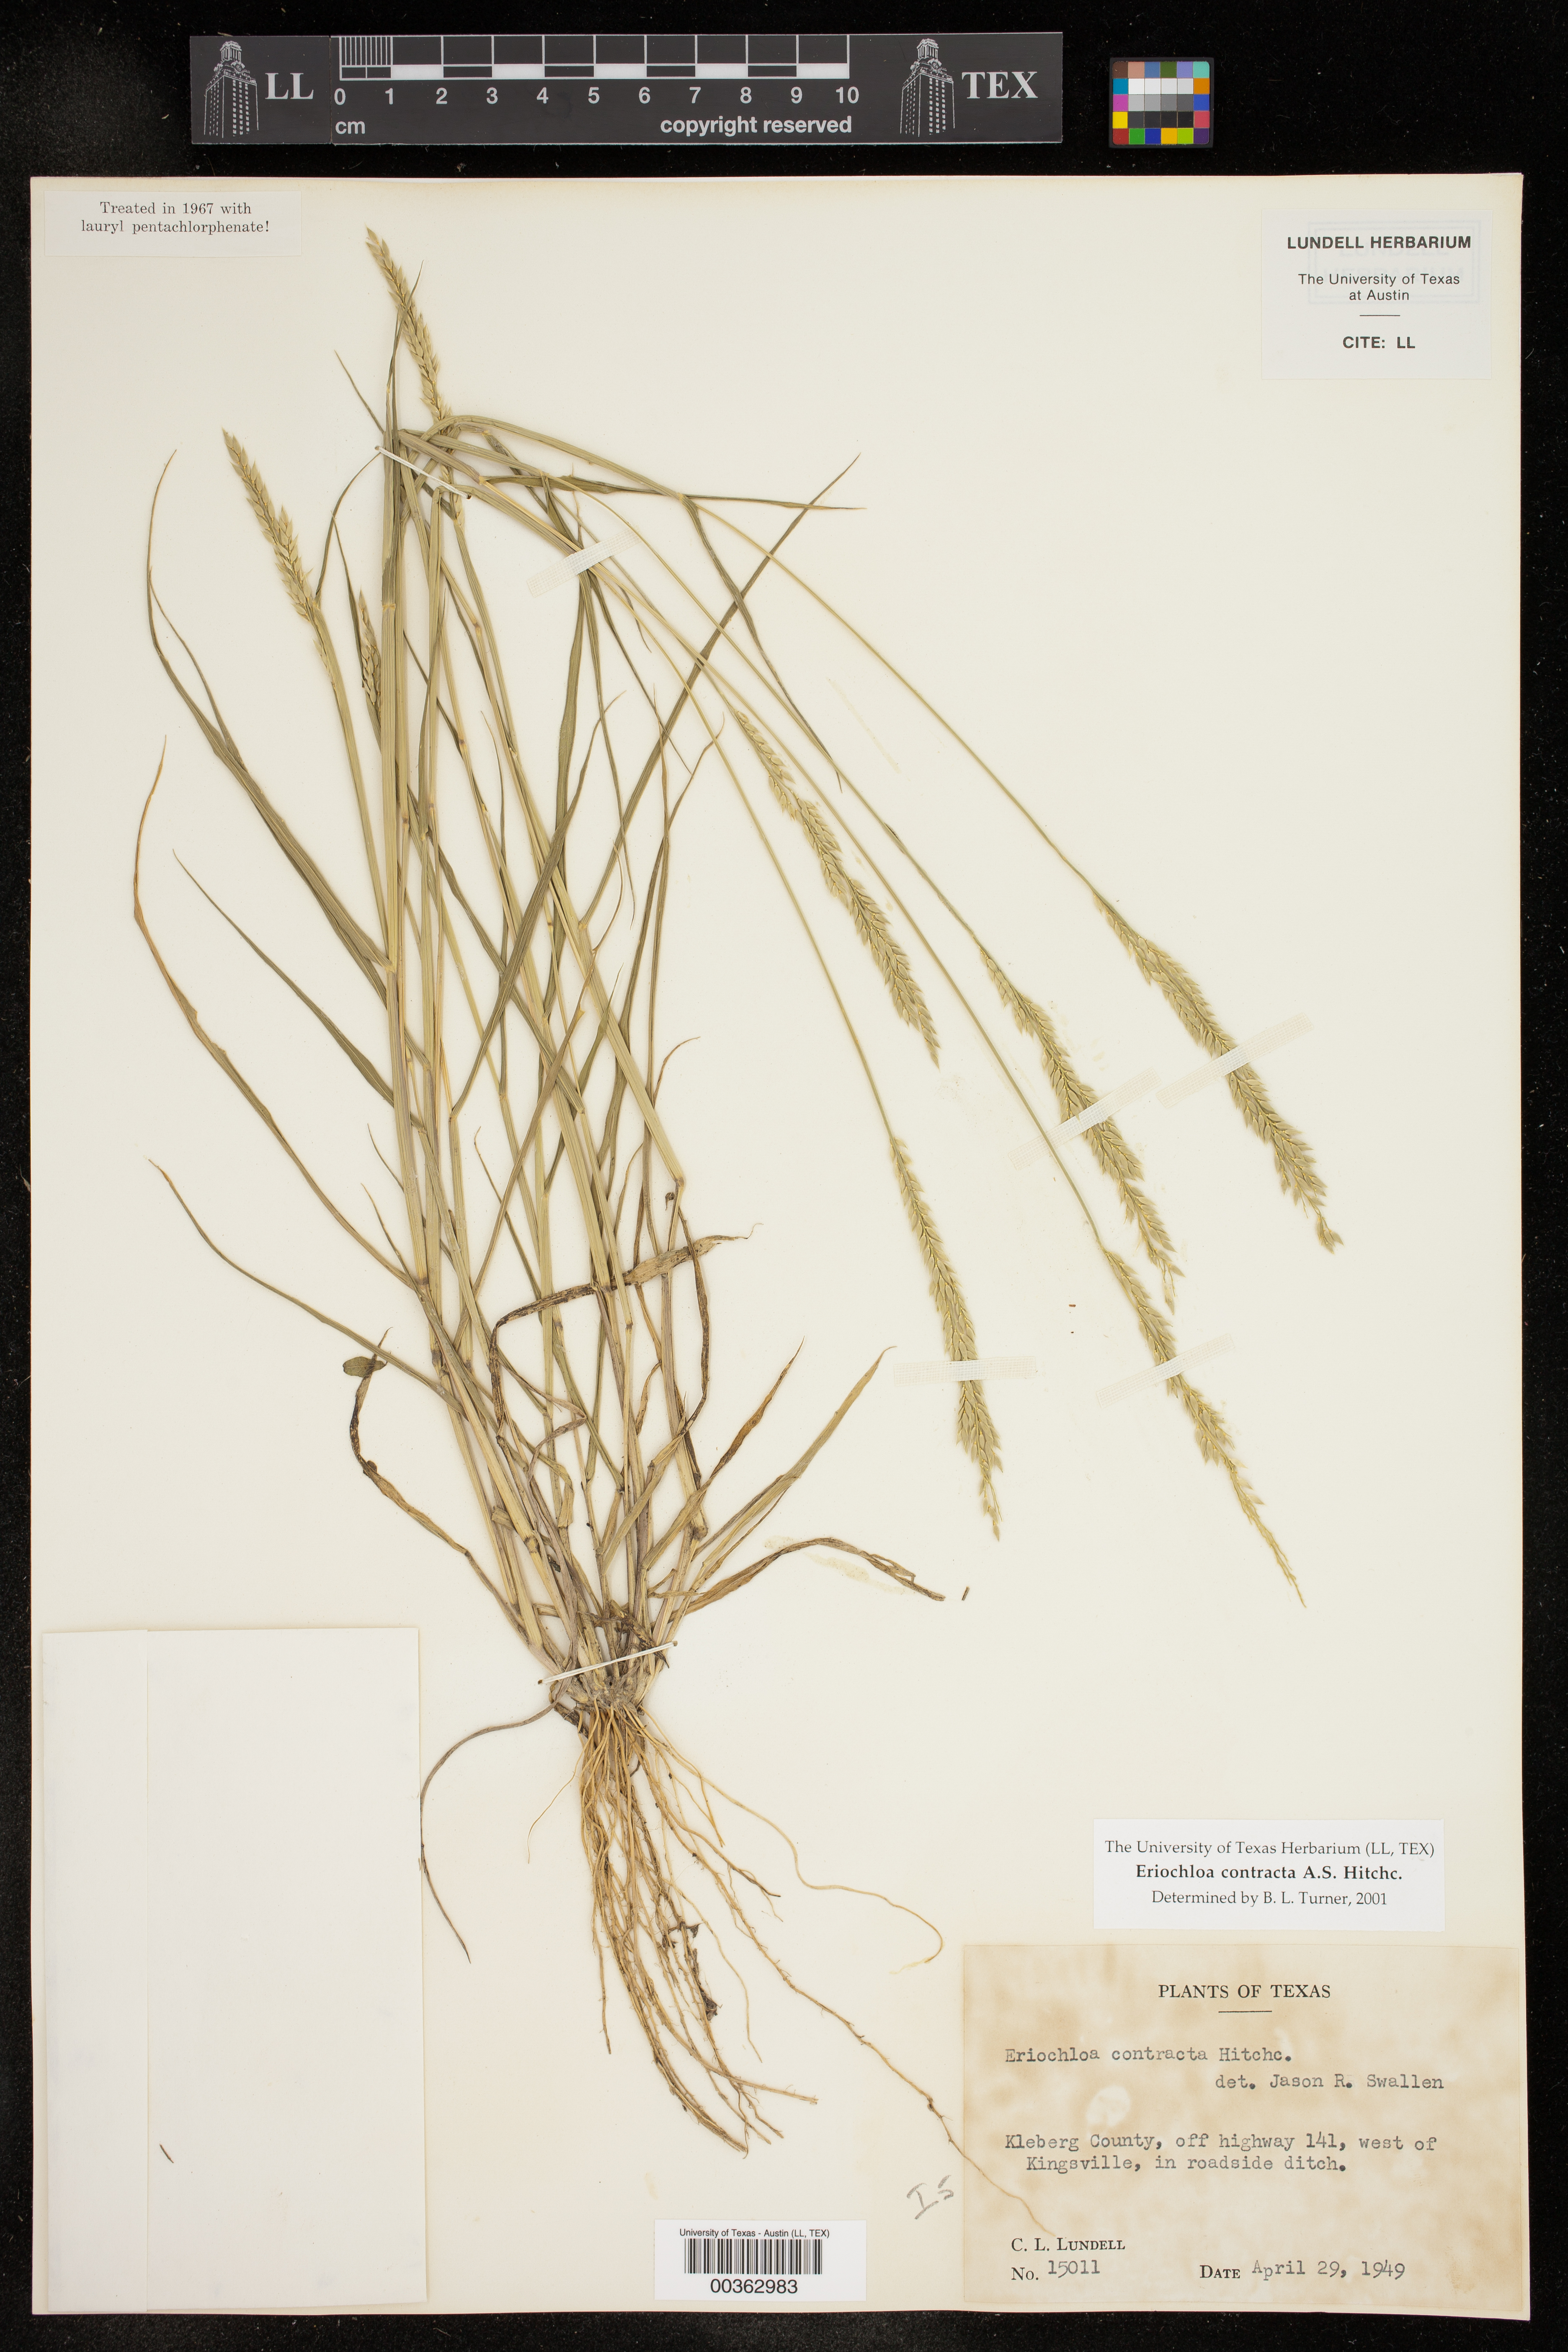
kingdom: Plantae
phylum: Tracheophyta
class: Liliopsida
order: Poales
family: Poaceae
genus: Eriochloa
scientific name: Eriochloa contracta
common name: Prairie cup grass
